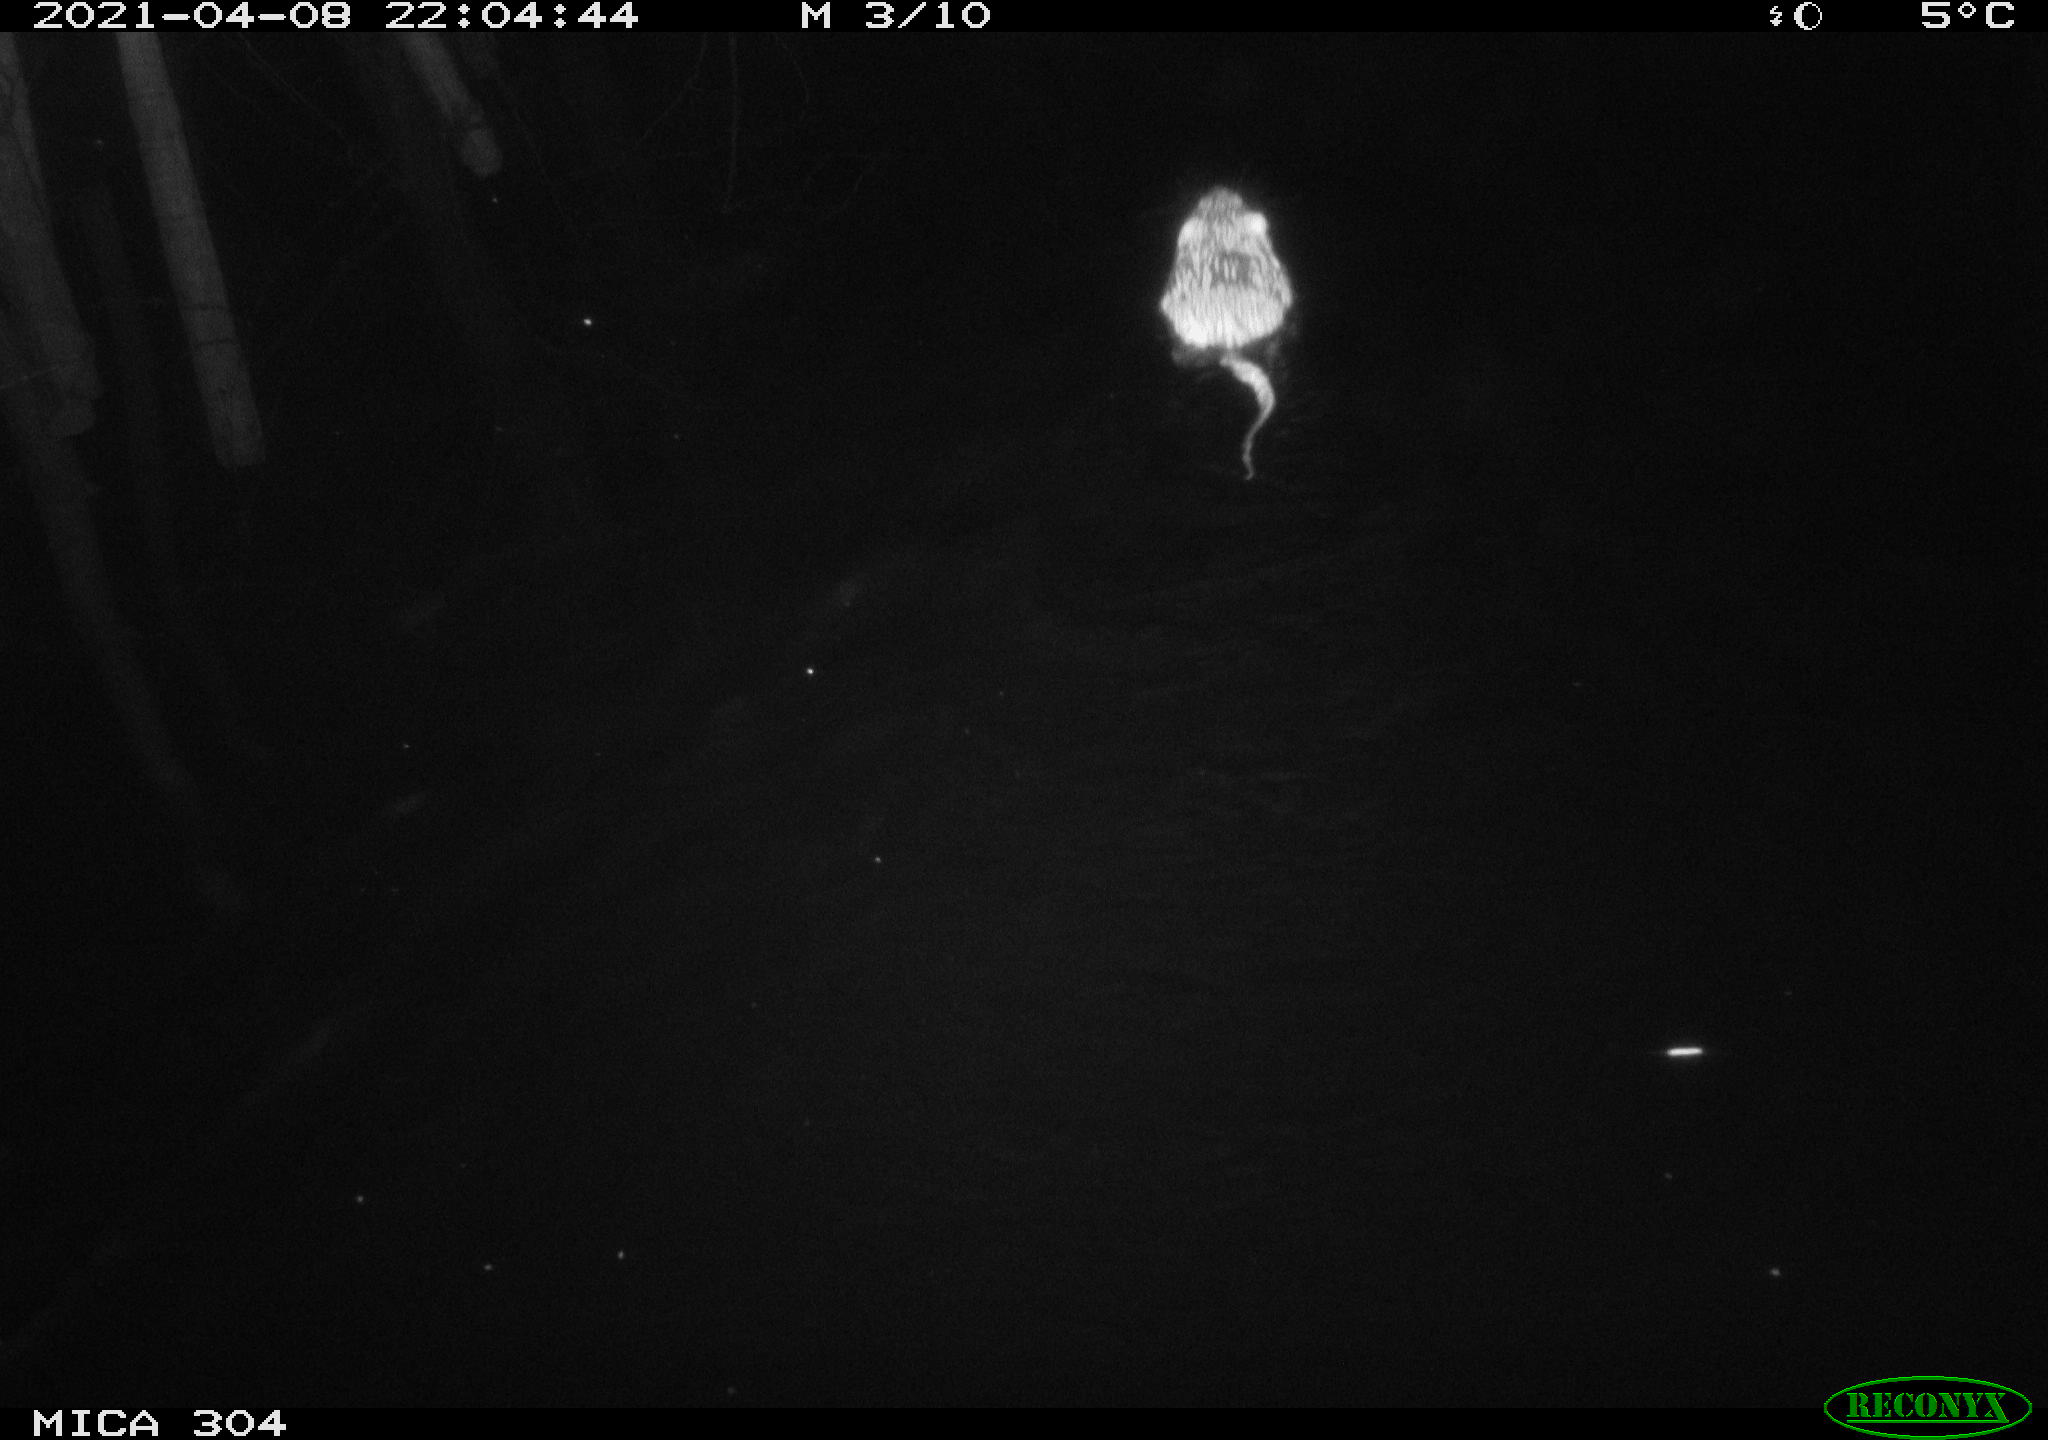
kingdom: Animalia
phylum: Chordata
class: Mammalia
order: Rodentia
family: Cricetidae
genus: Ondatra
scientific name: Ondatra zibethicus
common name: Muskrat
